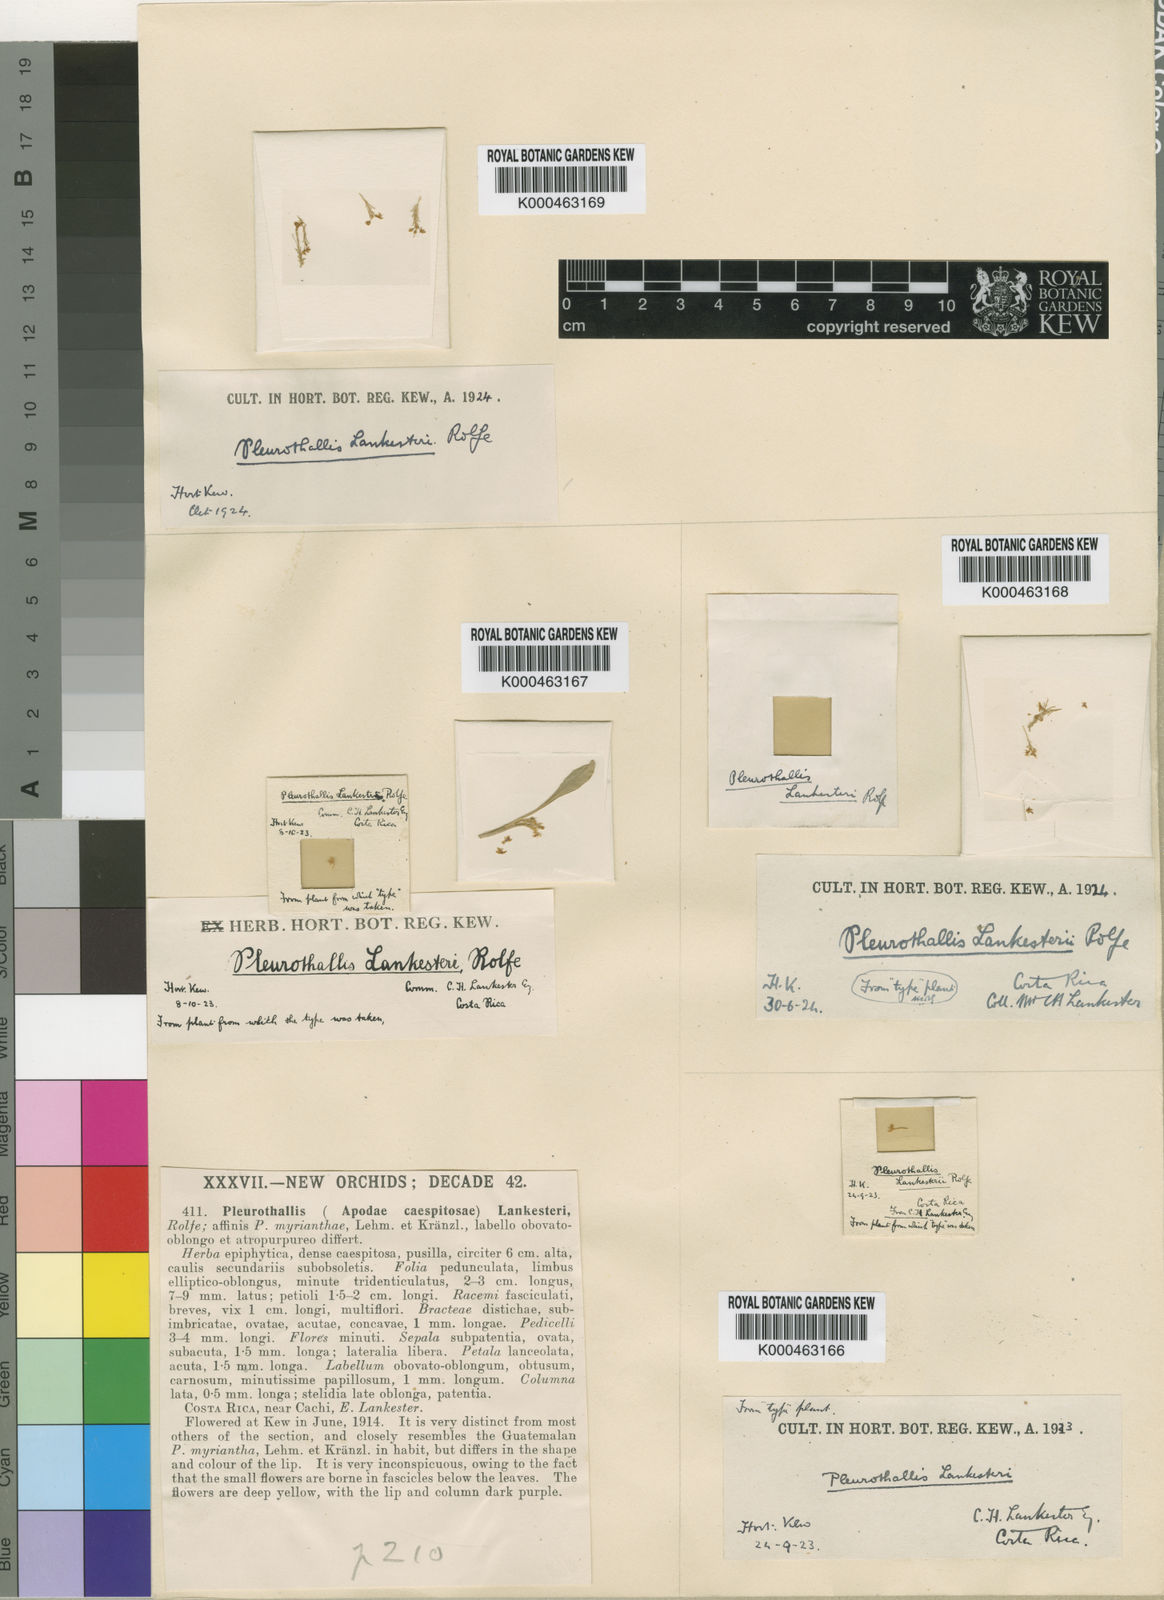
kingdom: Plantae
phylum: Tracheophyta
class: Liliopsida
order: Asparagales
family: Orchidaceae
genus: Platystele
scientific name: Platystele stenostachya
